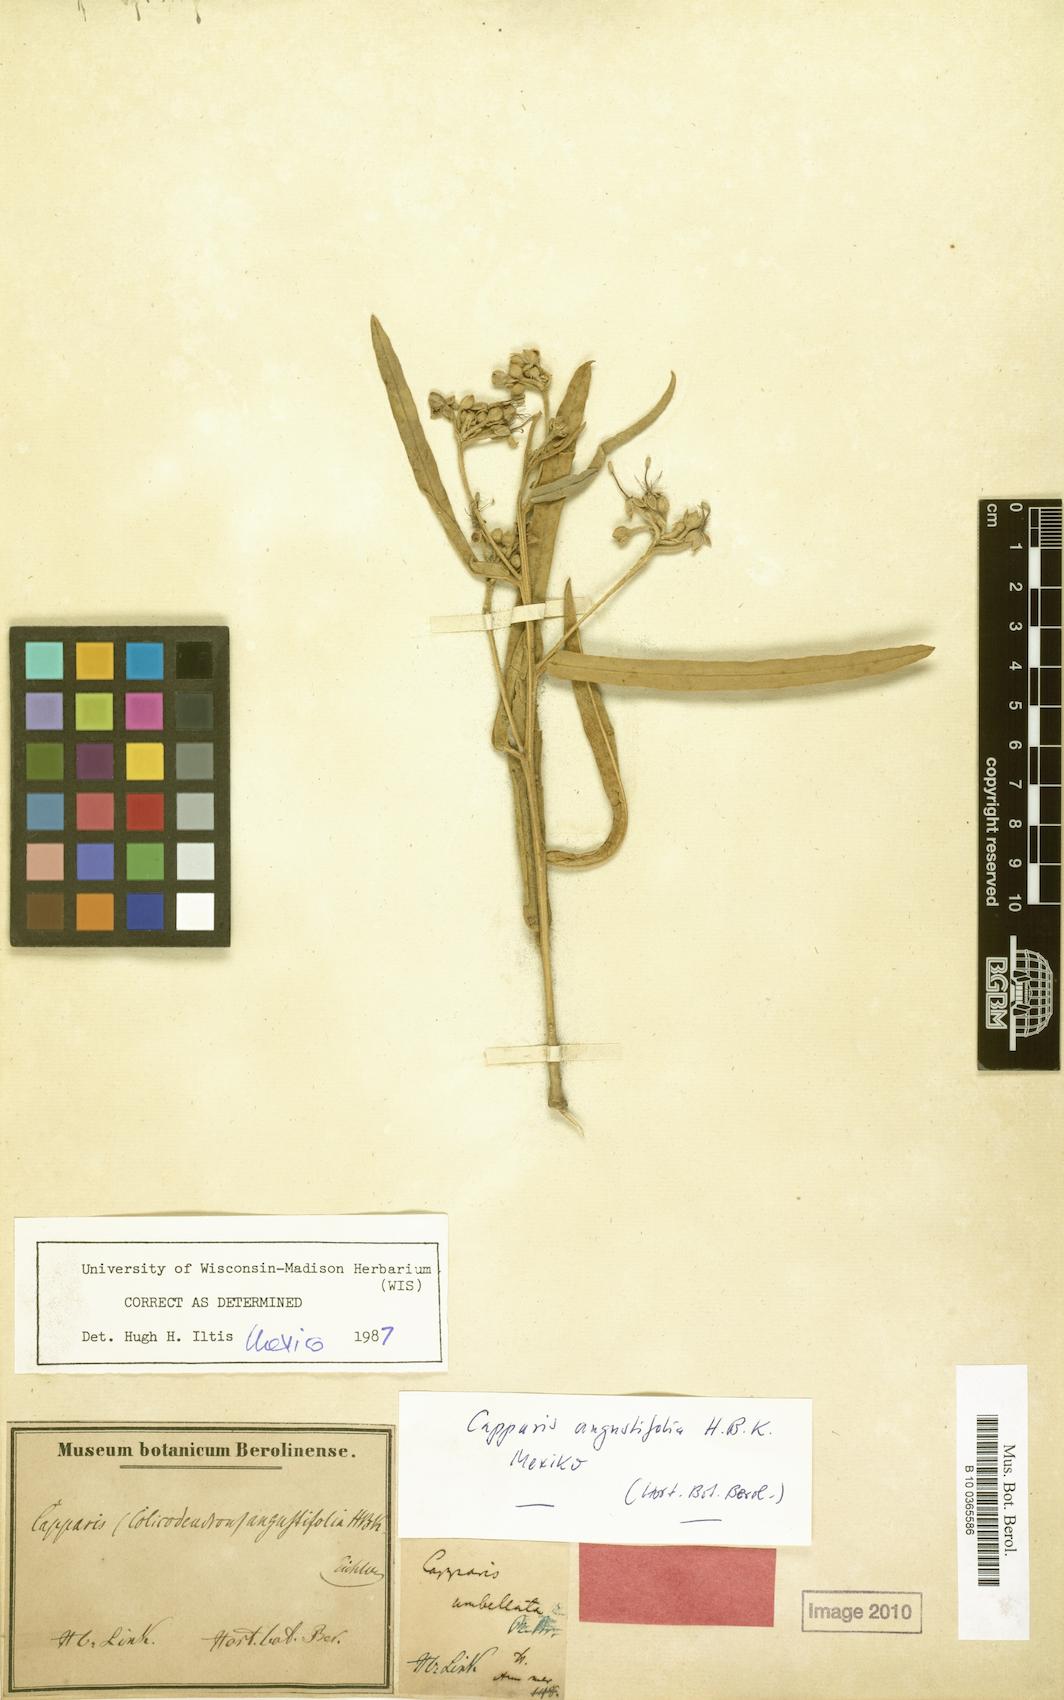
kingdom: Plantae
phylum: Tracheophyta
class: Magnoliopsida
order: Brassicales
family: Capparaceae
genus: Quadrella
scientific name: Quadrella angustifolia
